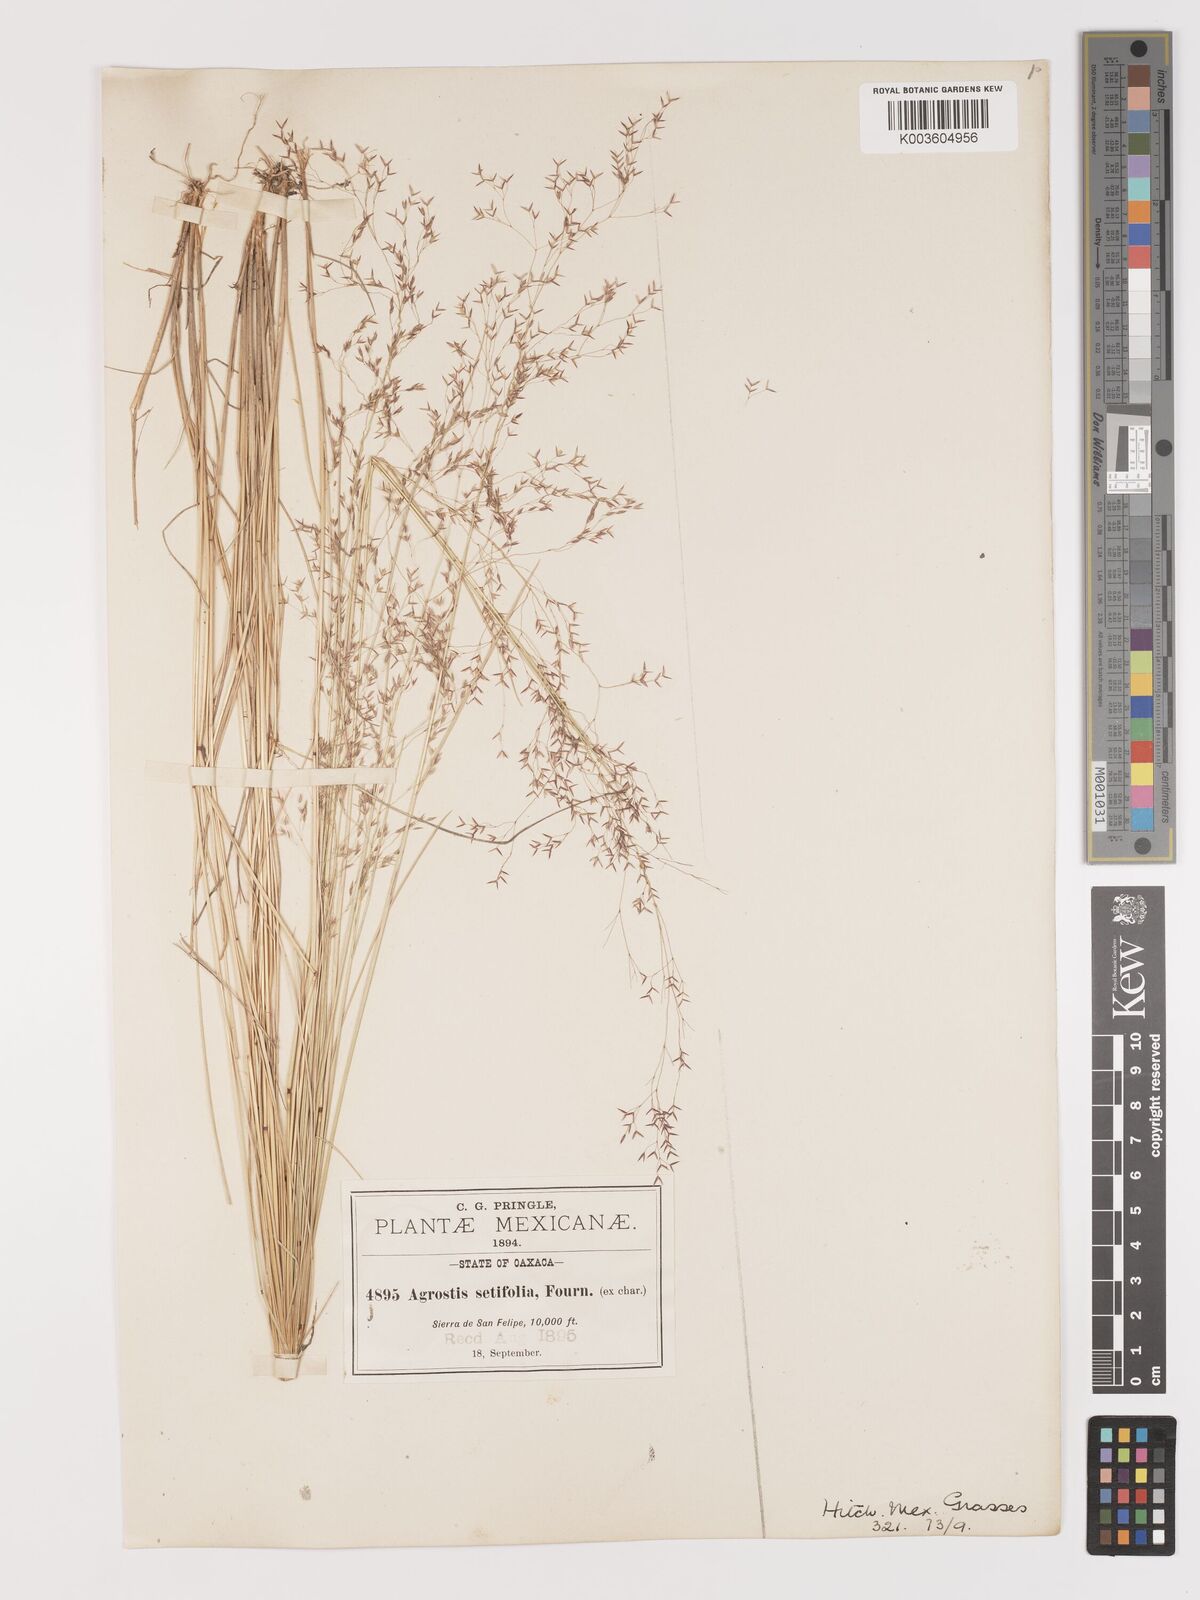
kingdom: Plantae
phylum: Tracheophyta
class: Liliopsida
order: Poales
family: Poaceae
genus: Agrostis
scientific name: Agrostis ghiesbreghtii
